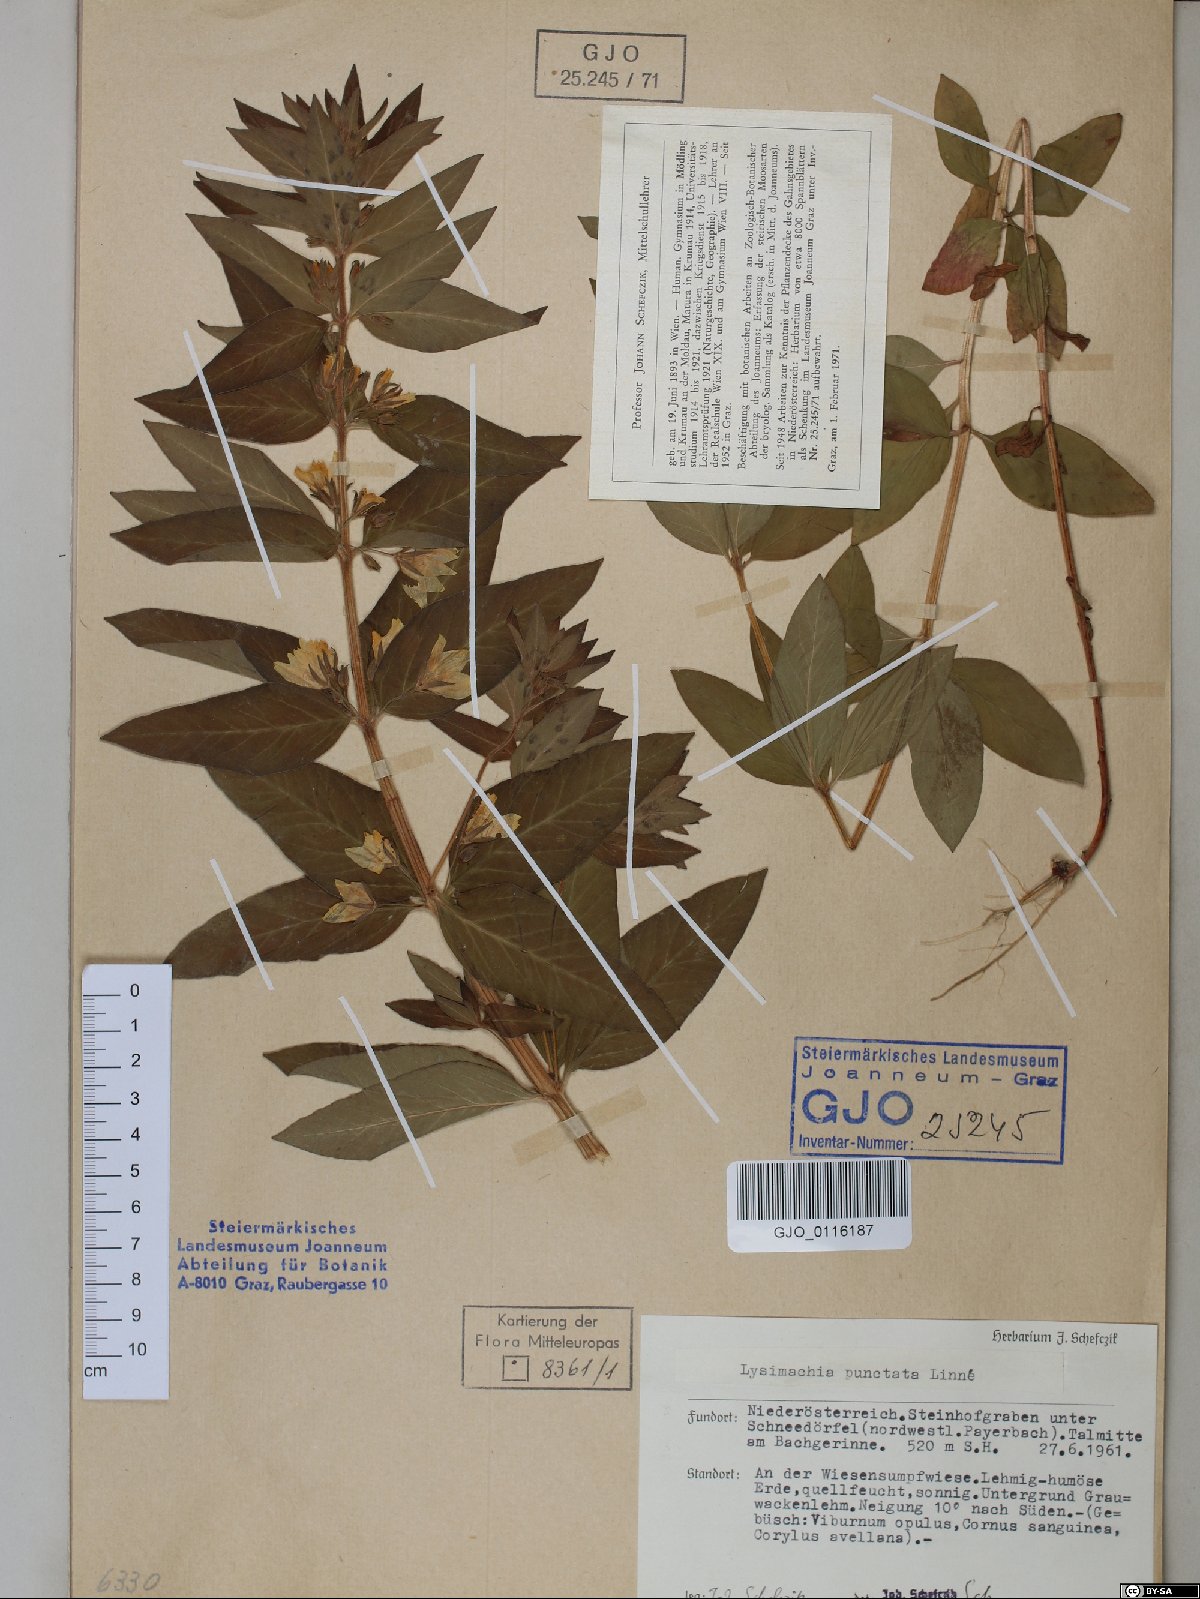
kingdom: Plantae
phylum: Tracheophyta
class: Magnoliopsida
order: Ericales
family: Primulaceae
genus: Lysimachia
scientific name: Lysimachia punctata
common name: Dotted loosestrife
